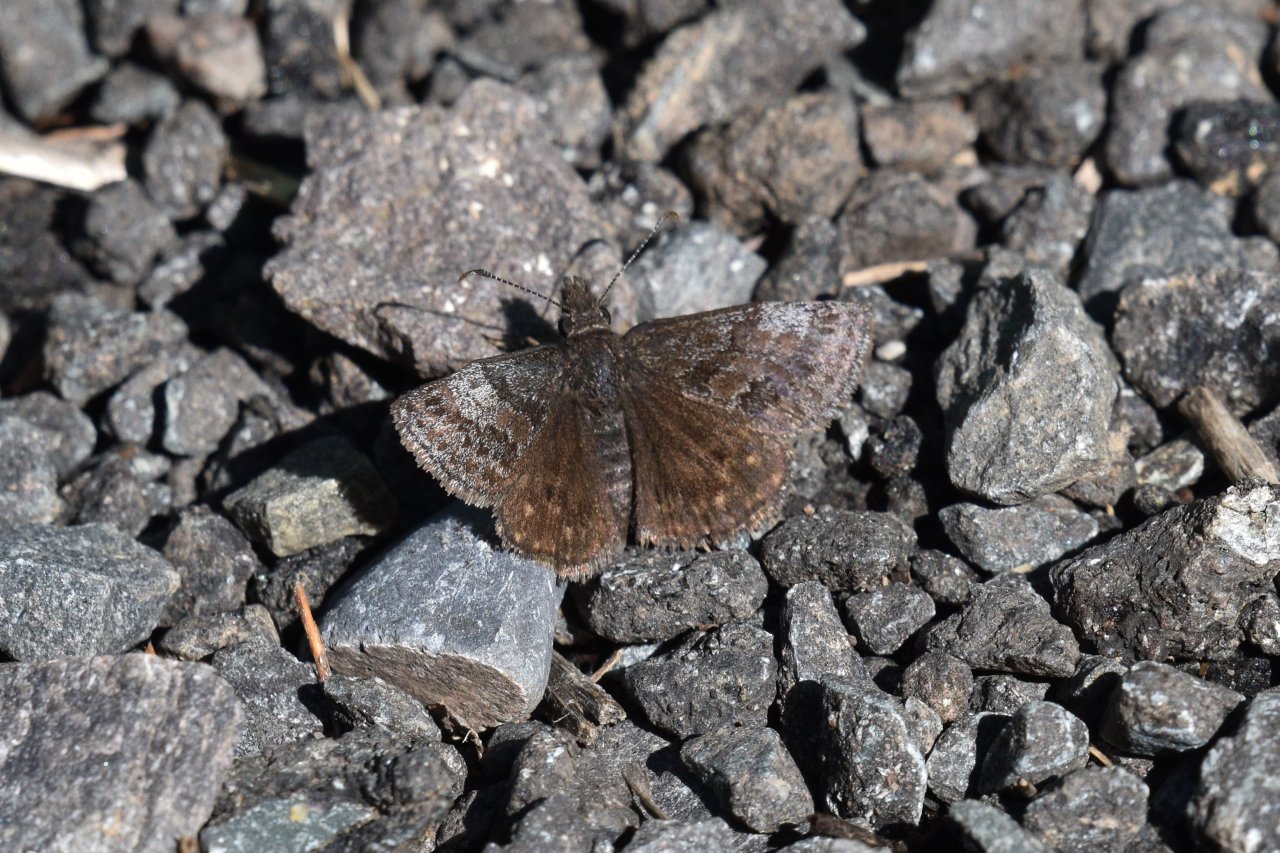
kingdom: Animalia
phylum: Arthropoda
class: Insecta
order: Lepidoptera
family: Hesperiidae
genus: Erynnis
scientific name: Erynnis icelus
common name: Dreamy Duskywing
